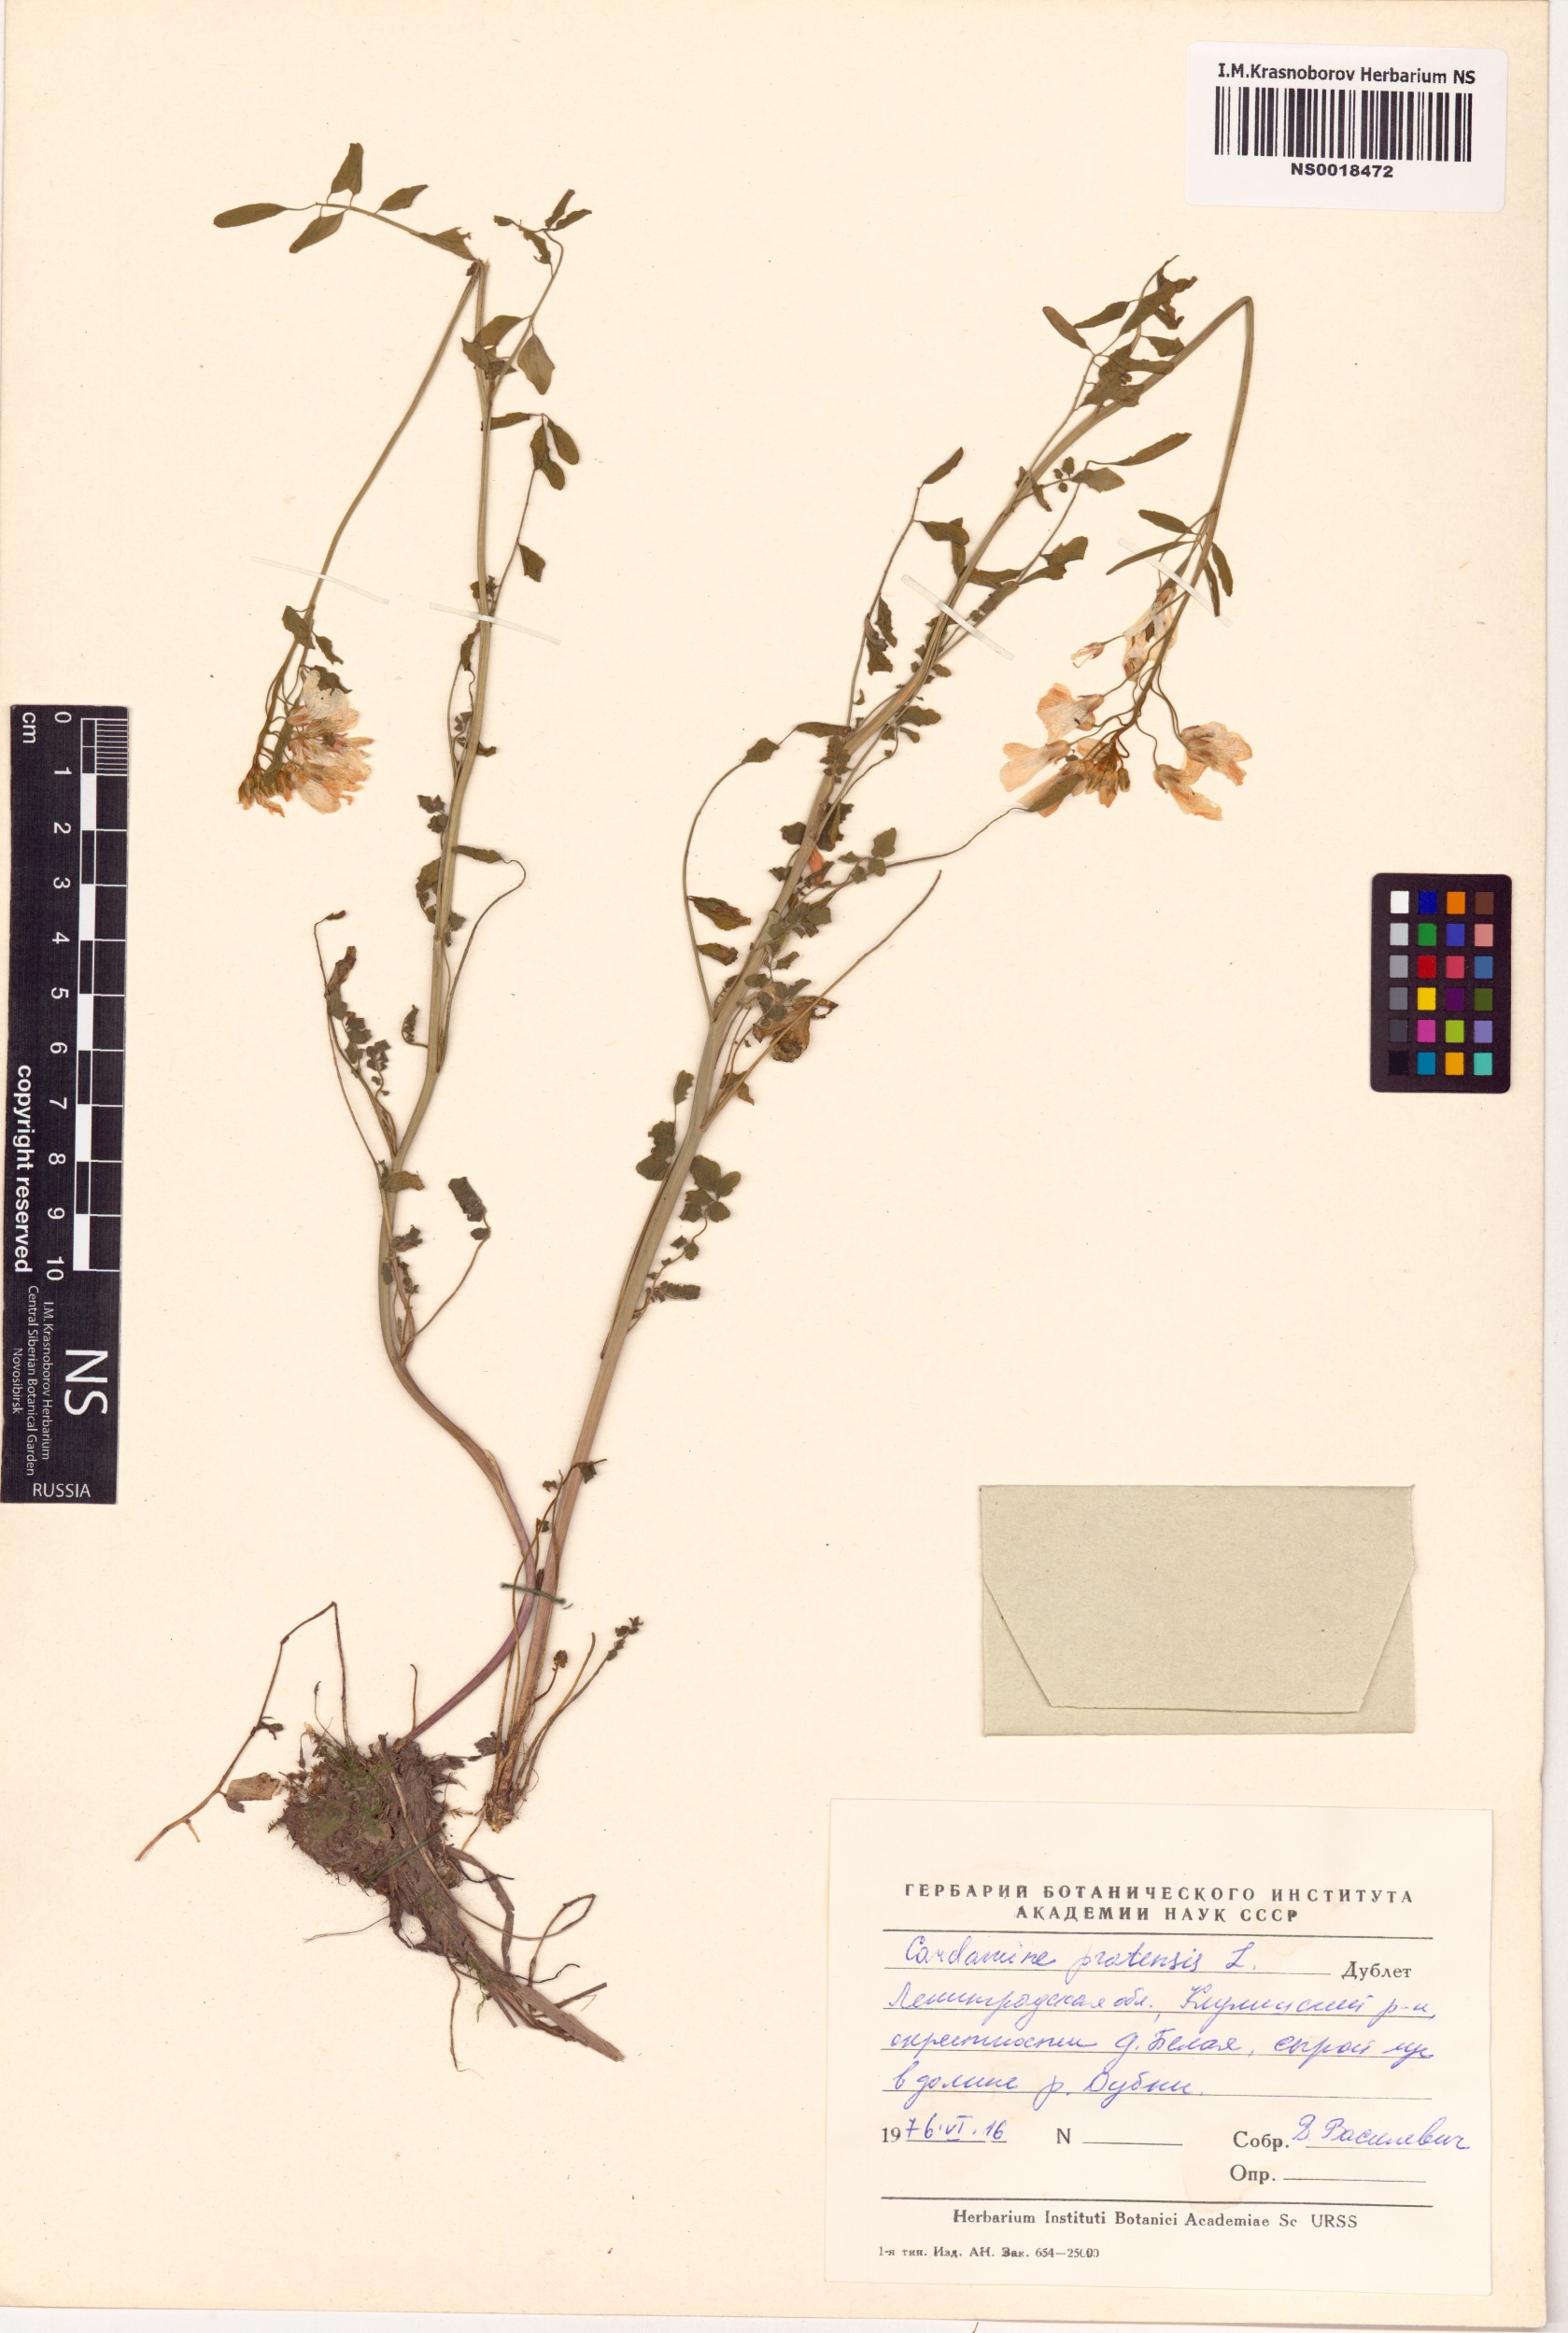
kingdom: Plantae
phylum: Tracheophyta
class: Magnoliopsida
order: Brassicales
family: Brassicaceae
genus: Cardamine
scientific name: Cardamine pratensis
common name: Cuckoo flower
